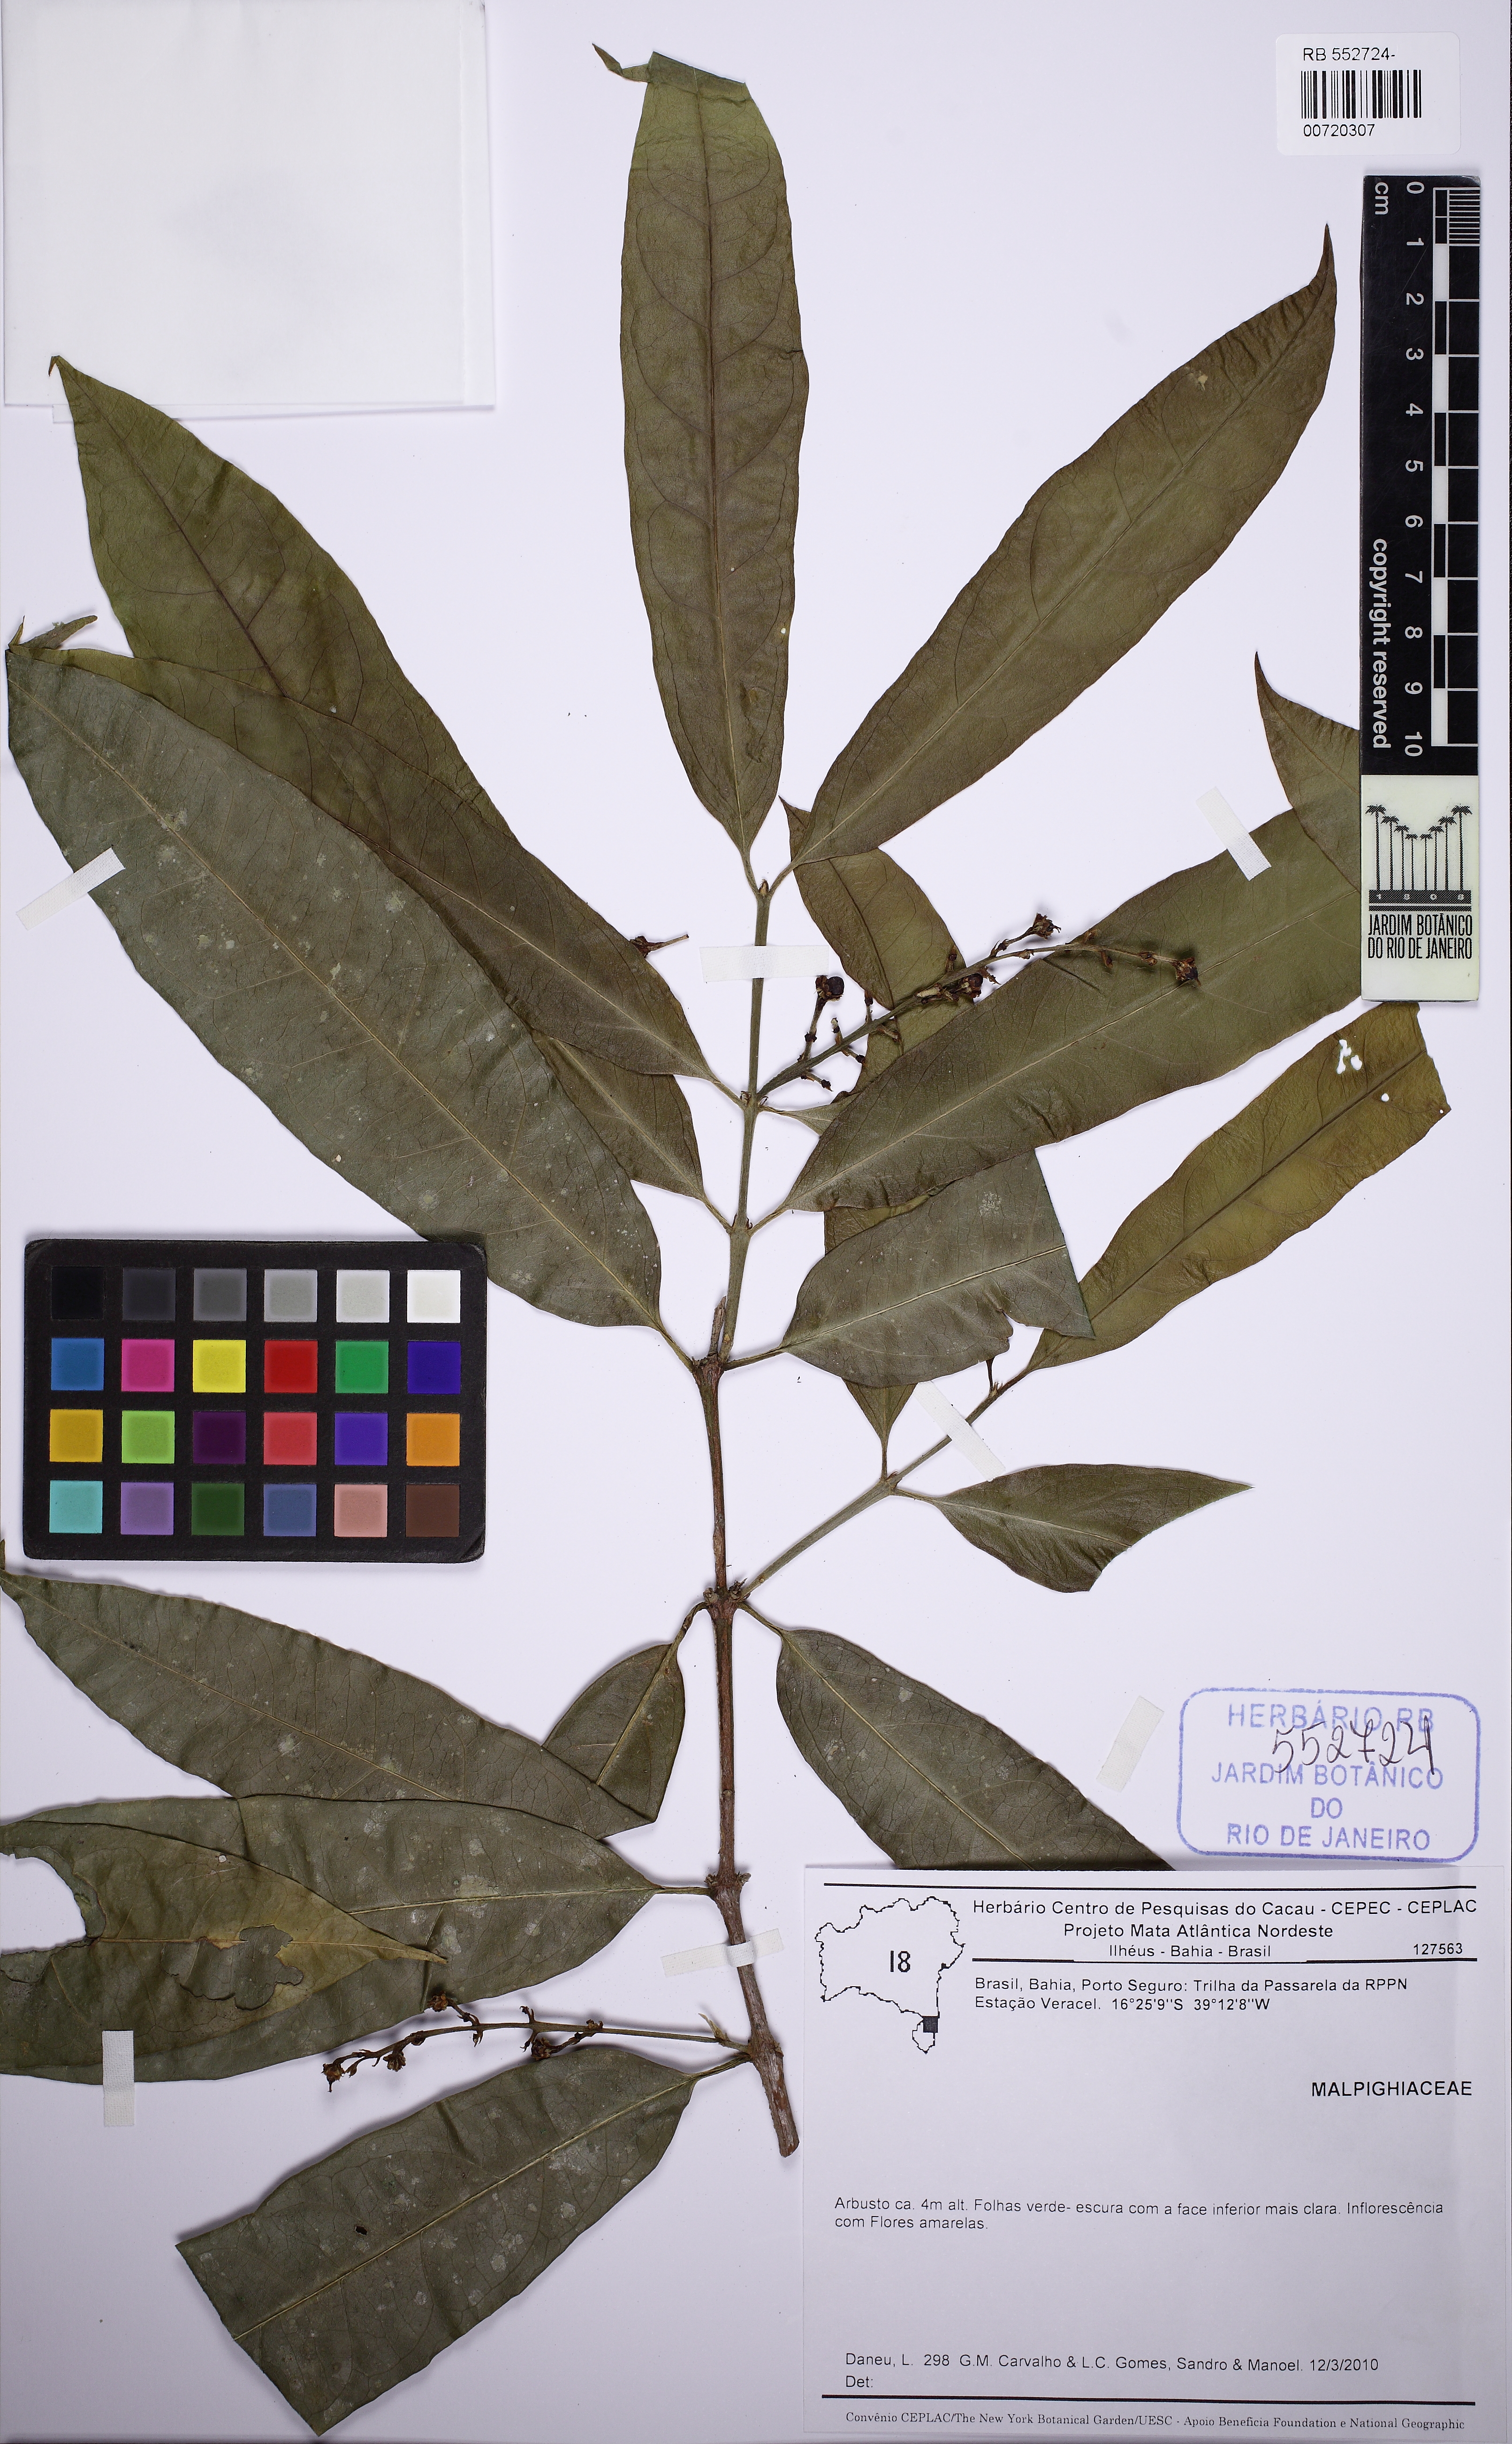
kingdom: Plantae
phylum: Tracheophyta
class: Magnoliopsida
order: Malpighiales
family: Malpighiaceae
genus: Bunchosia
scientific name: Bunchosia
